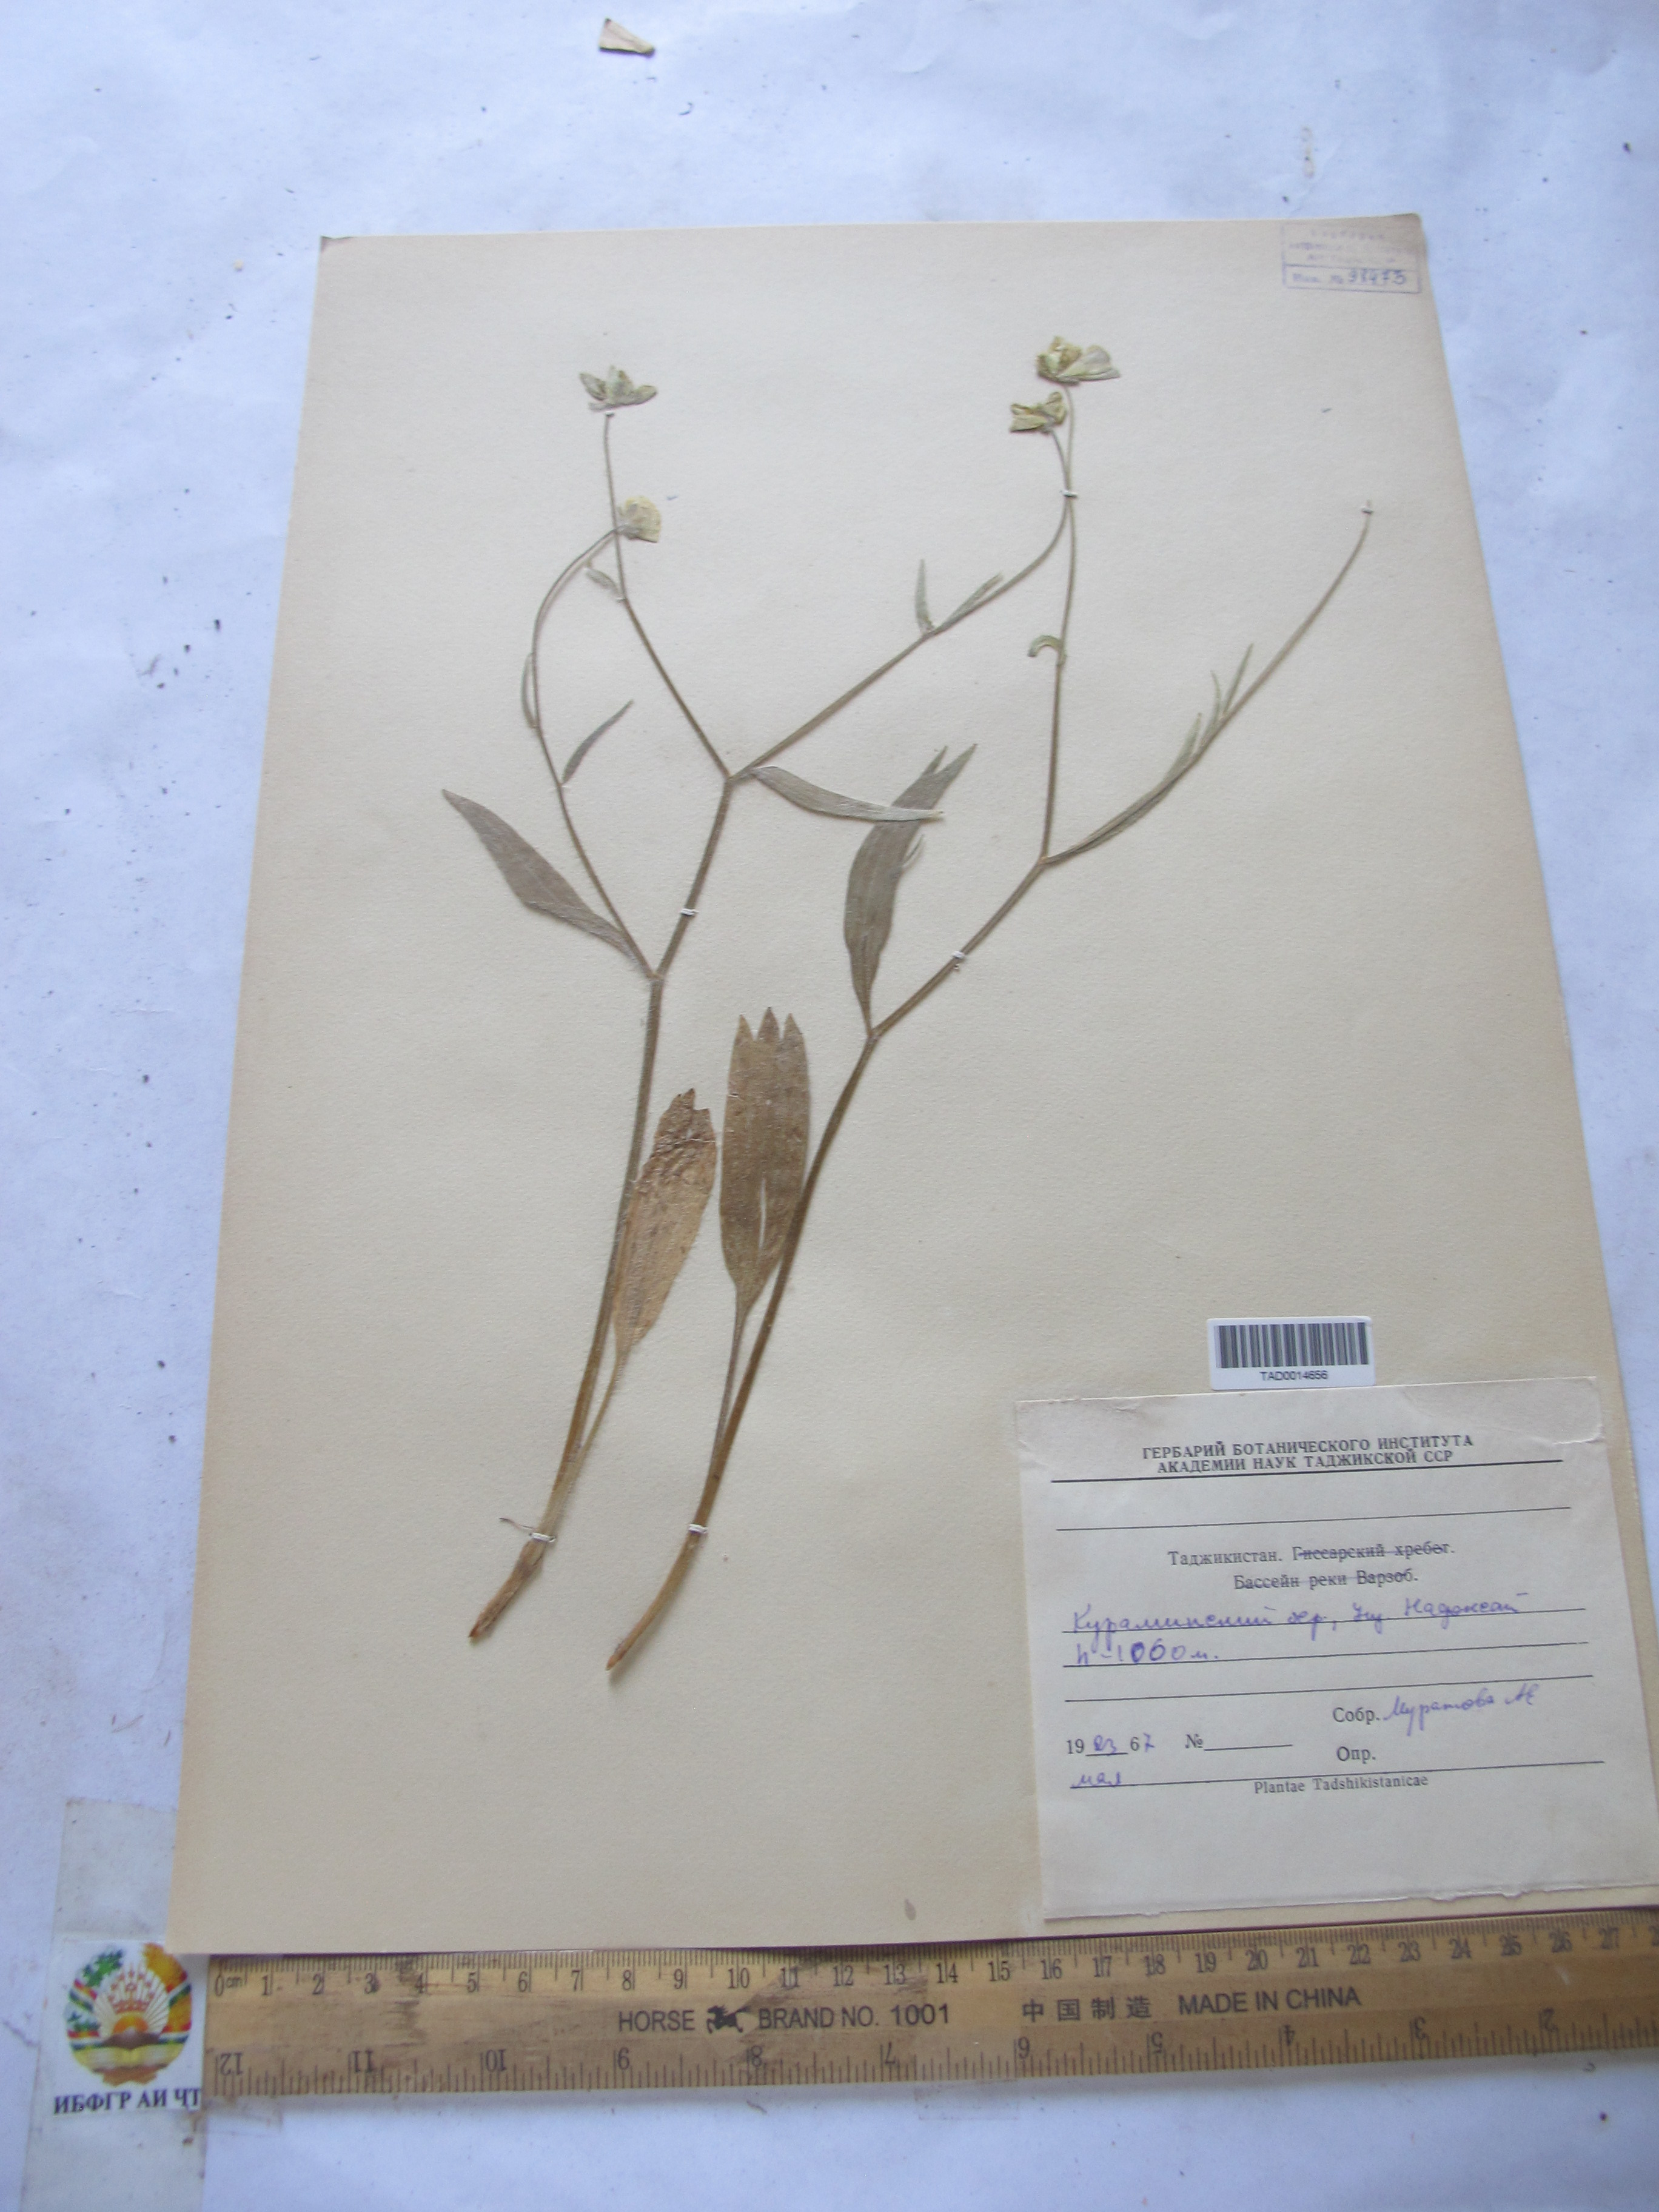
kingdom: Plantae
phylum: Tracheophyta
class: Magnoliopsida
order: Ranunculales
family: Ranunculaceae
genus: Ranunculus
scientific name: Ranunculus paucidentatus
